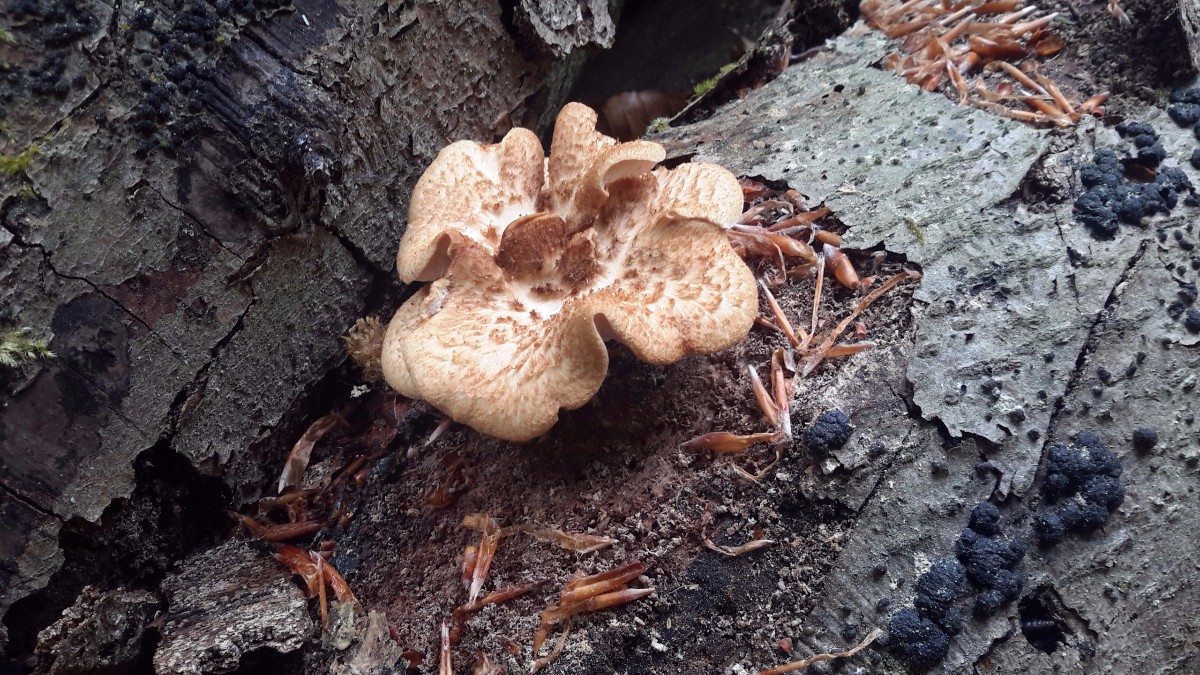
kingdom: Fungi
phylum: Basidiomycota
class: Agaricomycetes
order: Polyporales
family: Polyporaceae
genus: Polyporus
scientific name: Polyporus tuberaster
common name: knoldet stilkporesvamp
